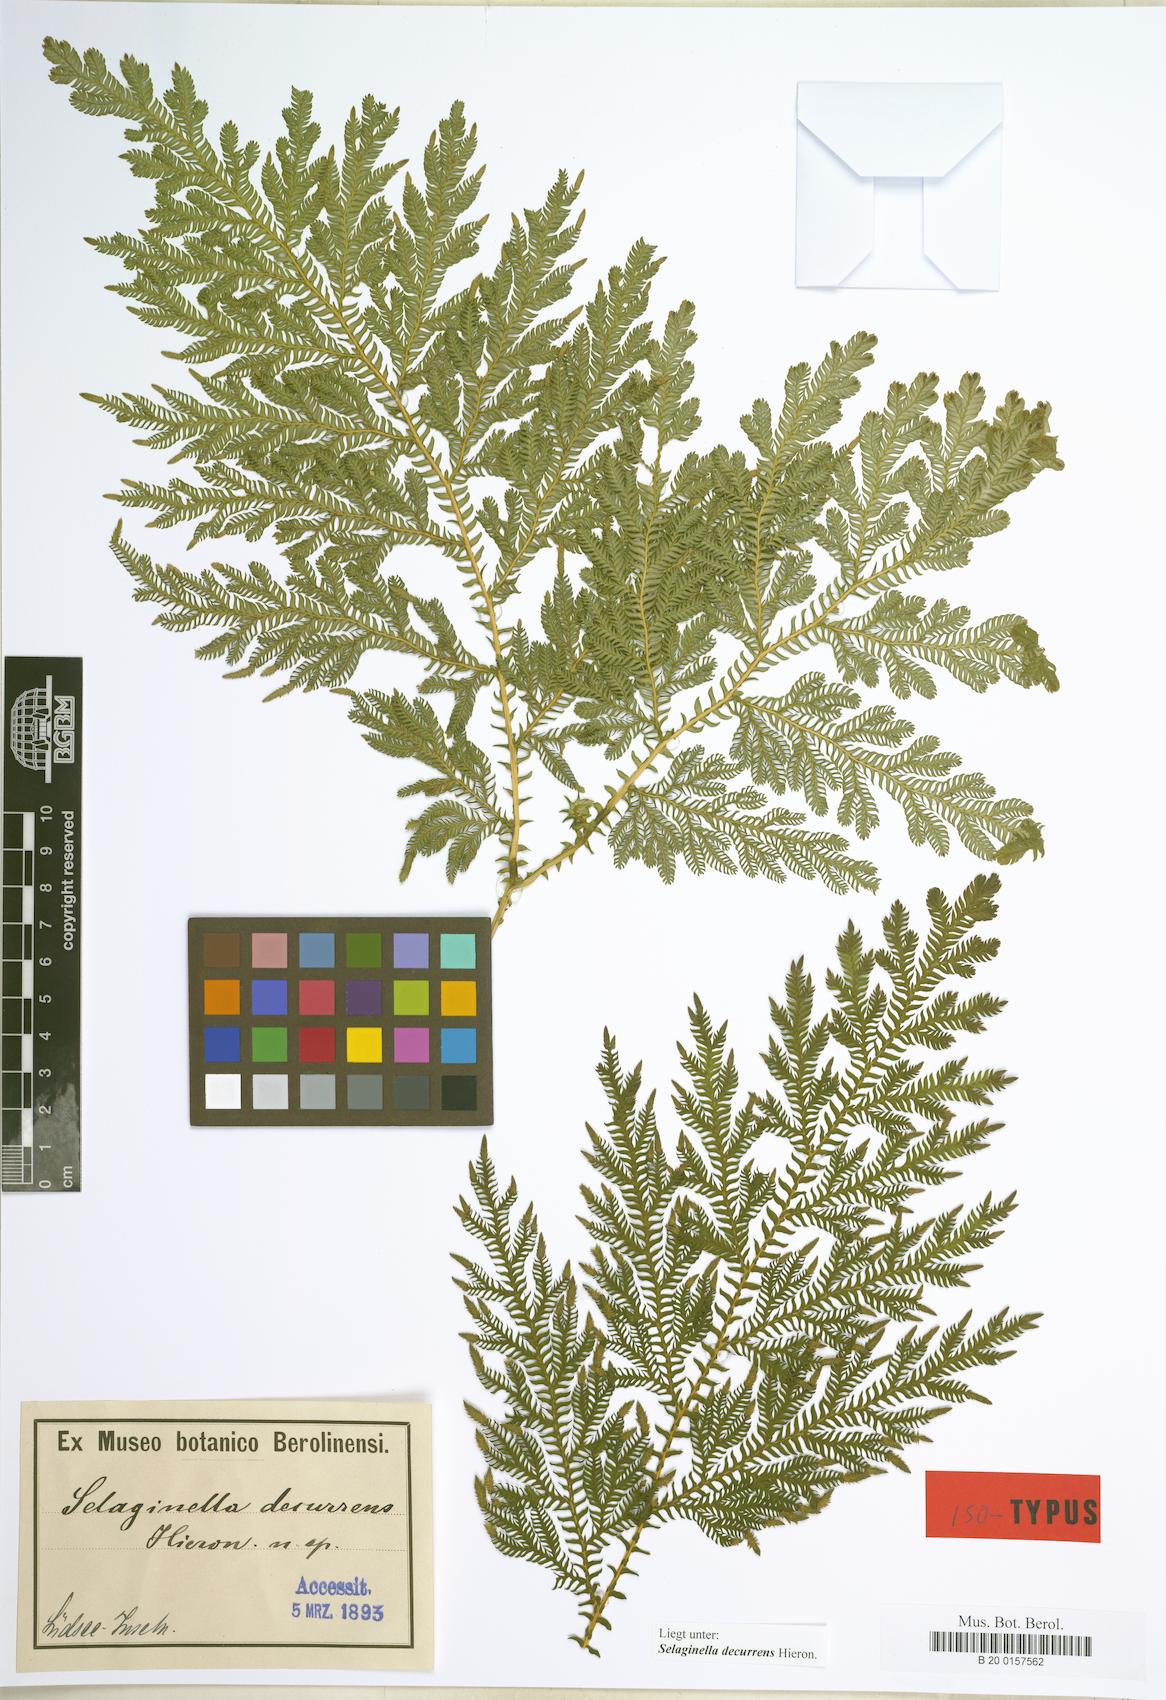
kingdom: Plantae
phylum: Tracheophyta
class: Lycopodiopsida
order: Selaginellales
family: Selaginellaceae
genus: Selaginella
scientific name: Selaginella decurrens
